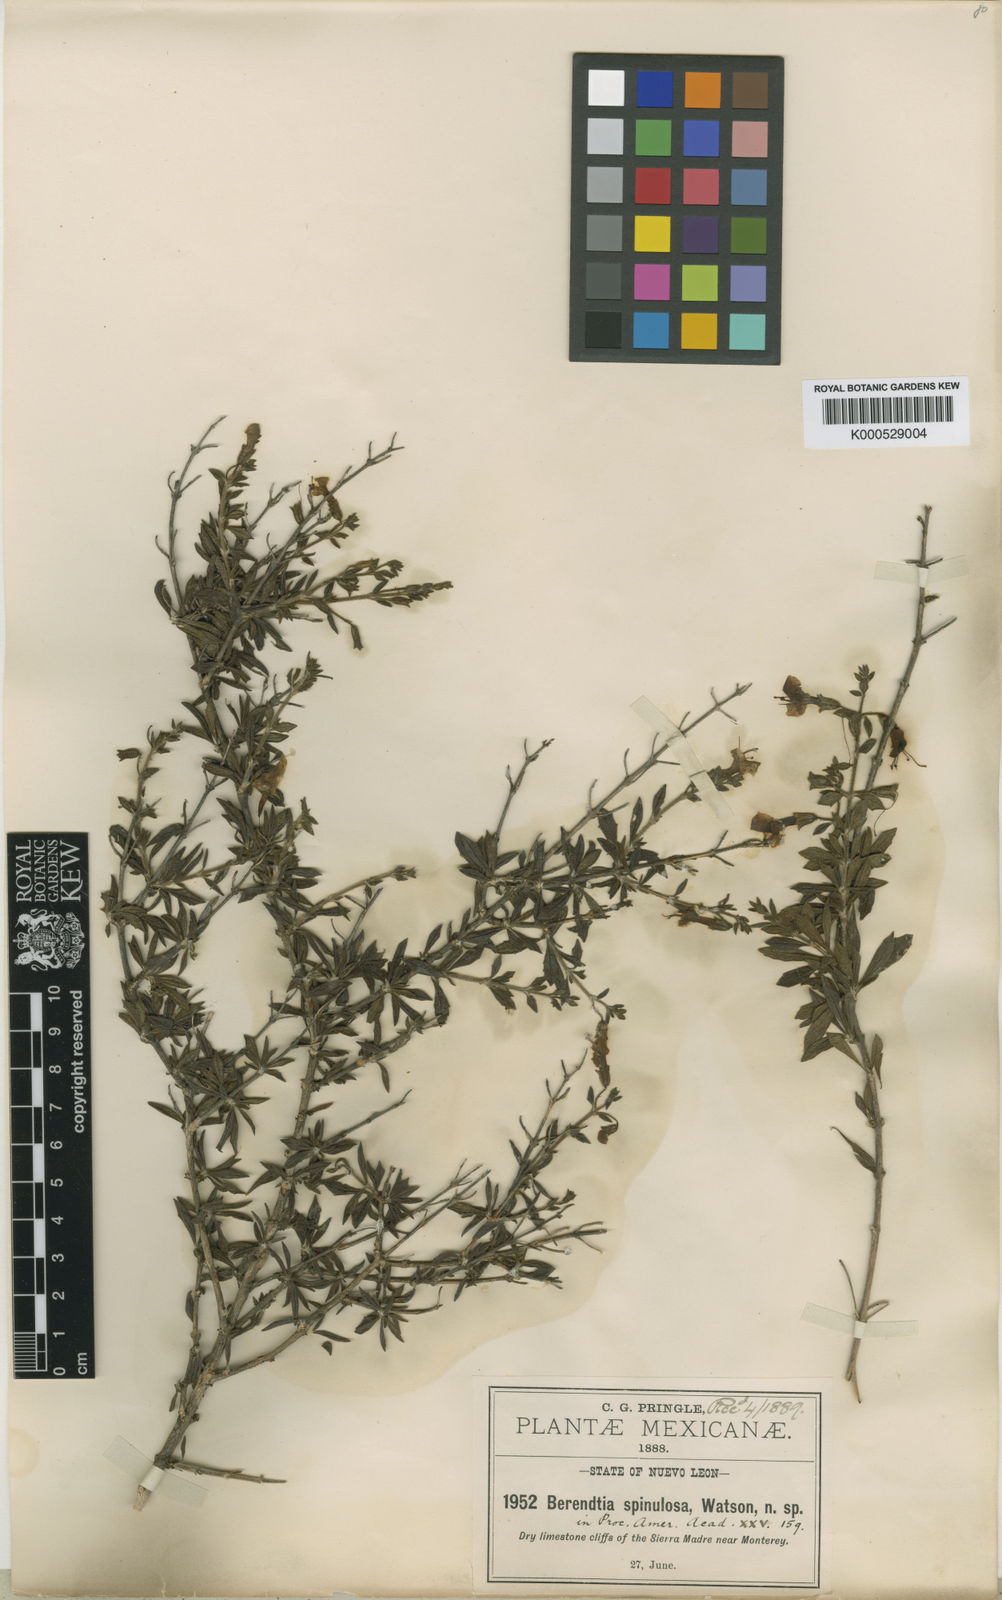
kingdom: Plantae
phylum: Tracheophyta
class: Magnoliopsida
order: Lamiales
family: Phrymaceae
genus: Hemichaena
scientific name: Hemichaena spinulosa
